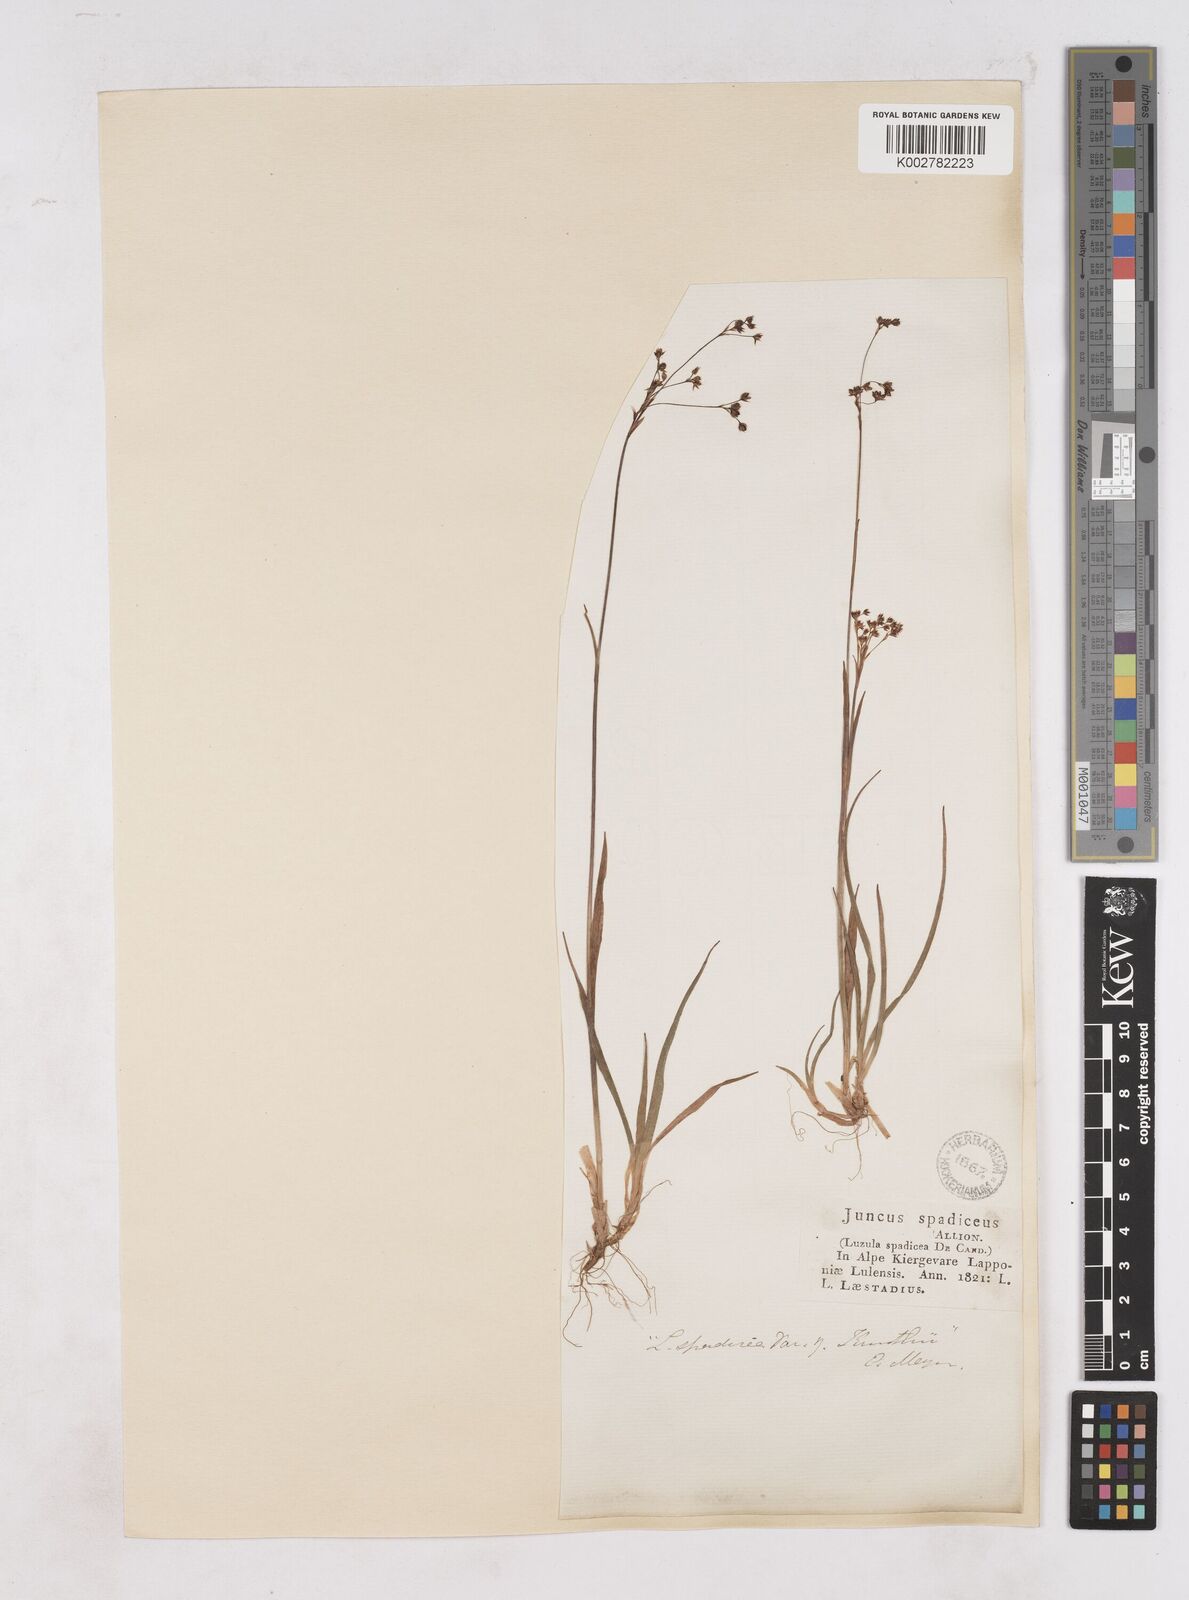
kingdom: Plantae
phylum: Tracheophyta
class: Liliopsida
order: Poales
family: Juncaceae
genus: Luzula
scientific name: Luzula alpinopilosa
